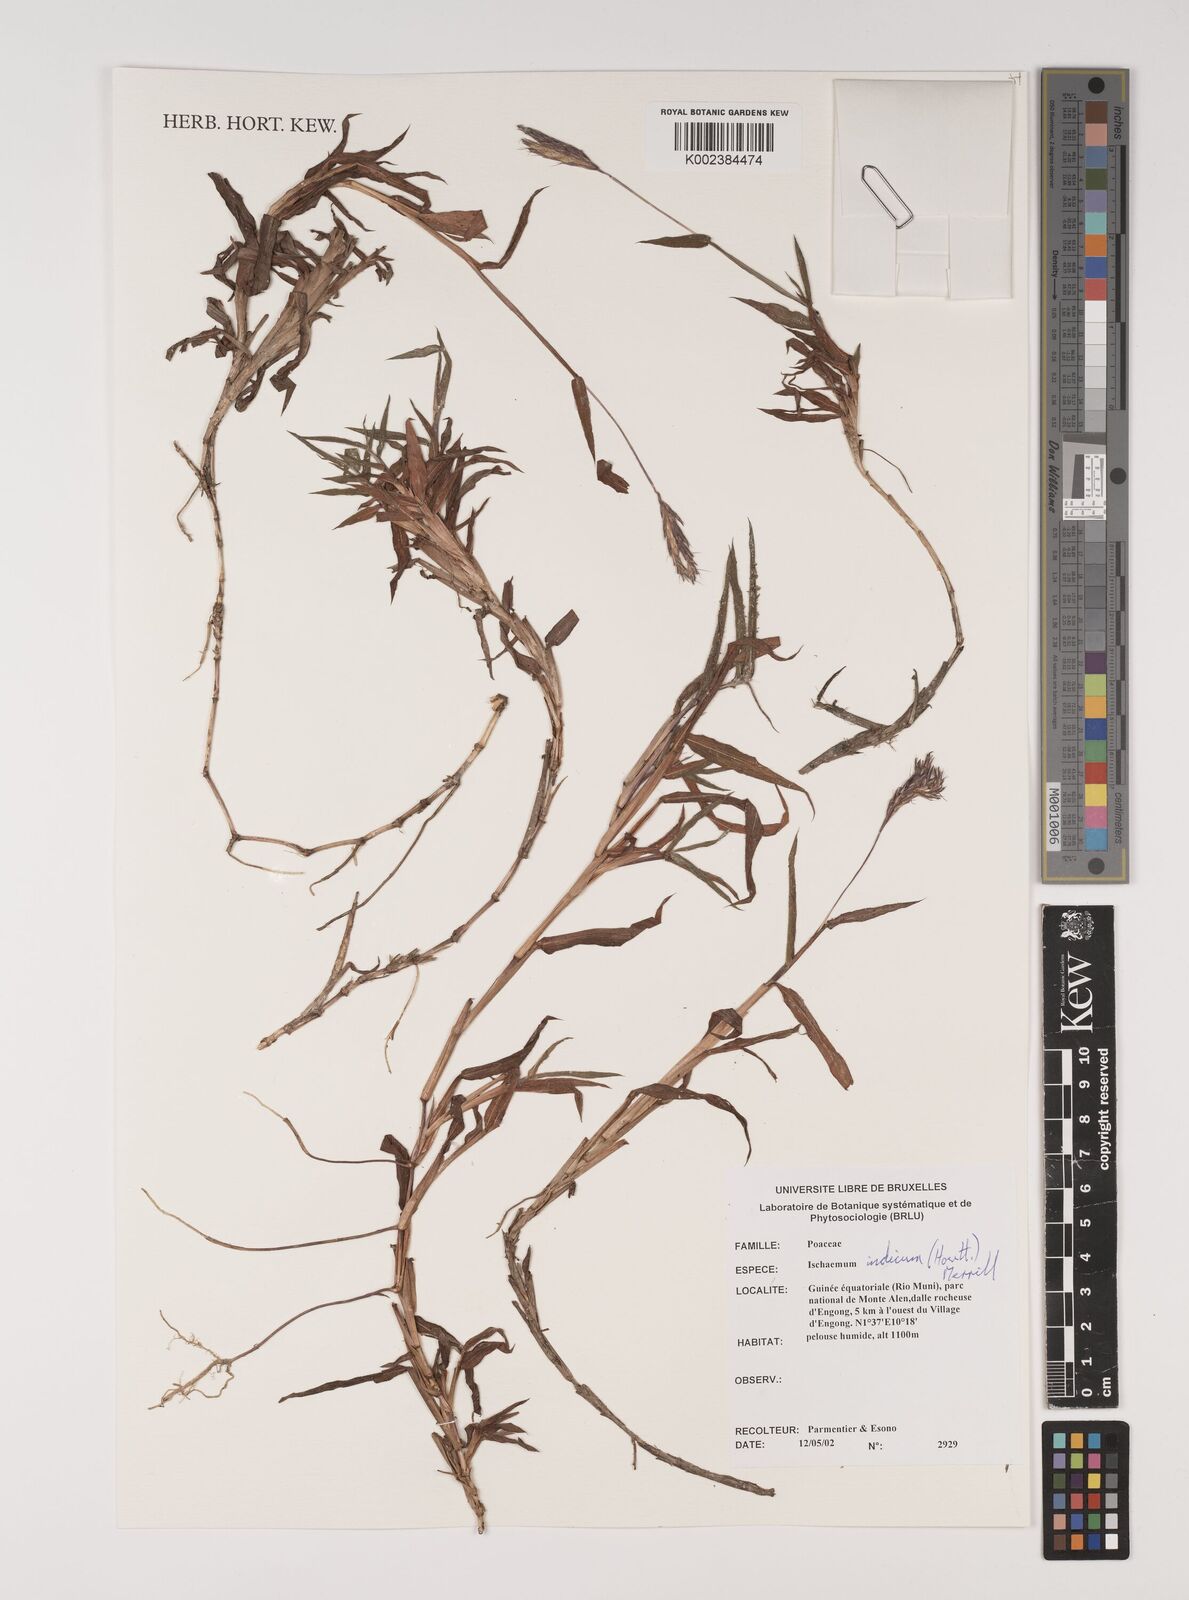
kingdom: Plantae
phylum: Tracheophyta
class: Liliopsida
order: Poales
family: Poaceae
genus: Polytrias
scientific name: Polytrias indica
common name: Indian murainagrass
